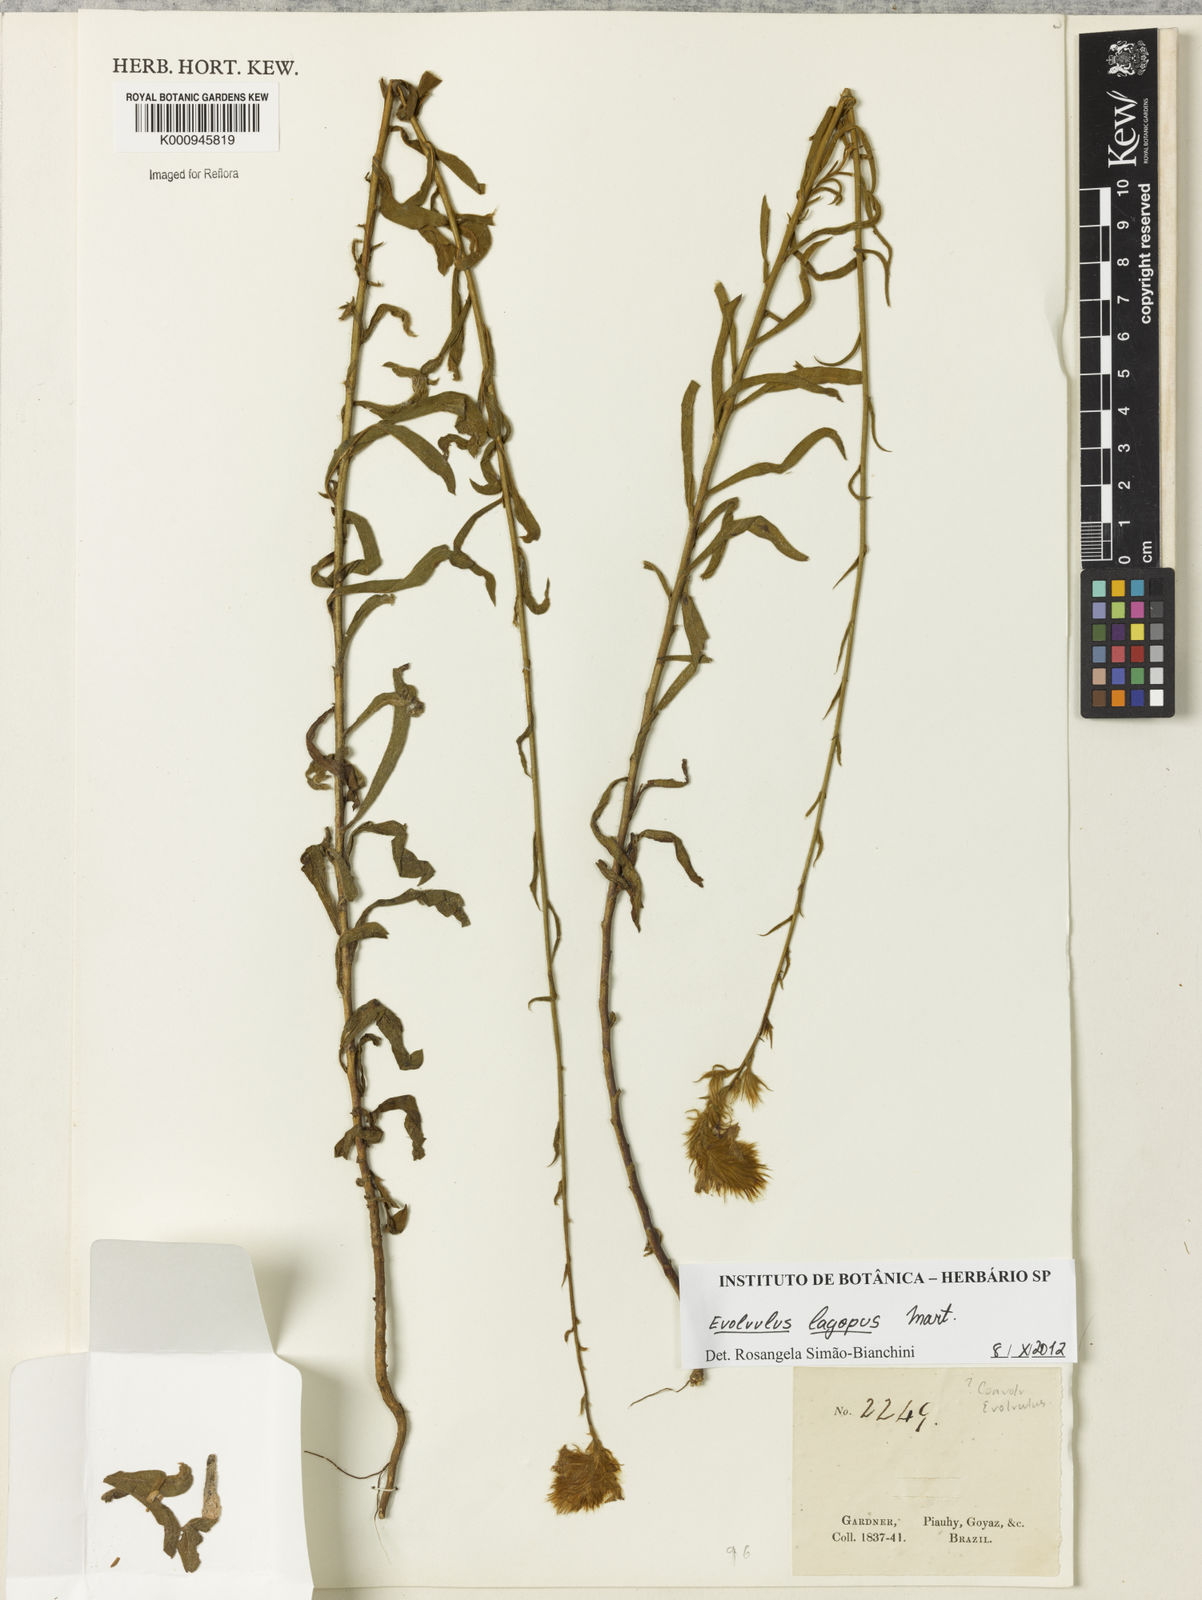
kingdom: Plantae
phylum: Tracheophyta
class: Magnoliopsida
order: Solanales
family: Convolvulaceae
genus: Evolvulus
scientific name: Evolvulus lagopus
